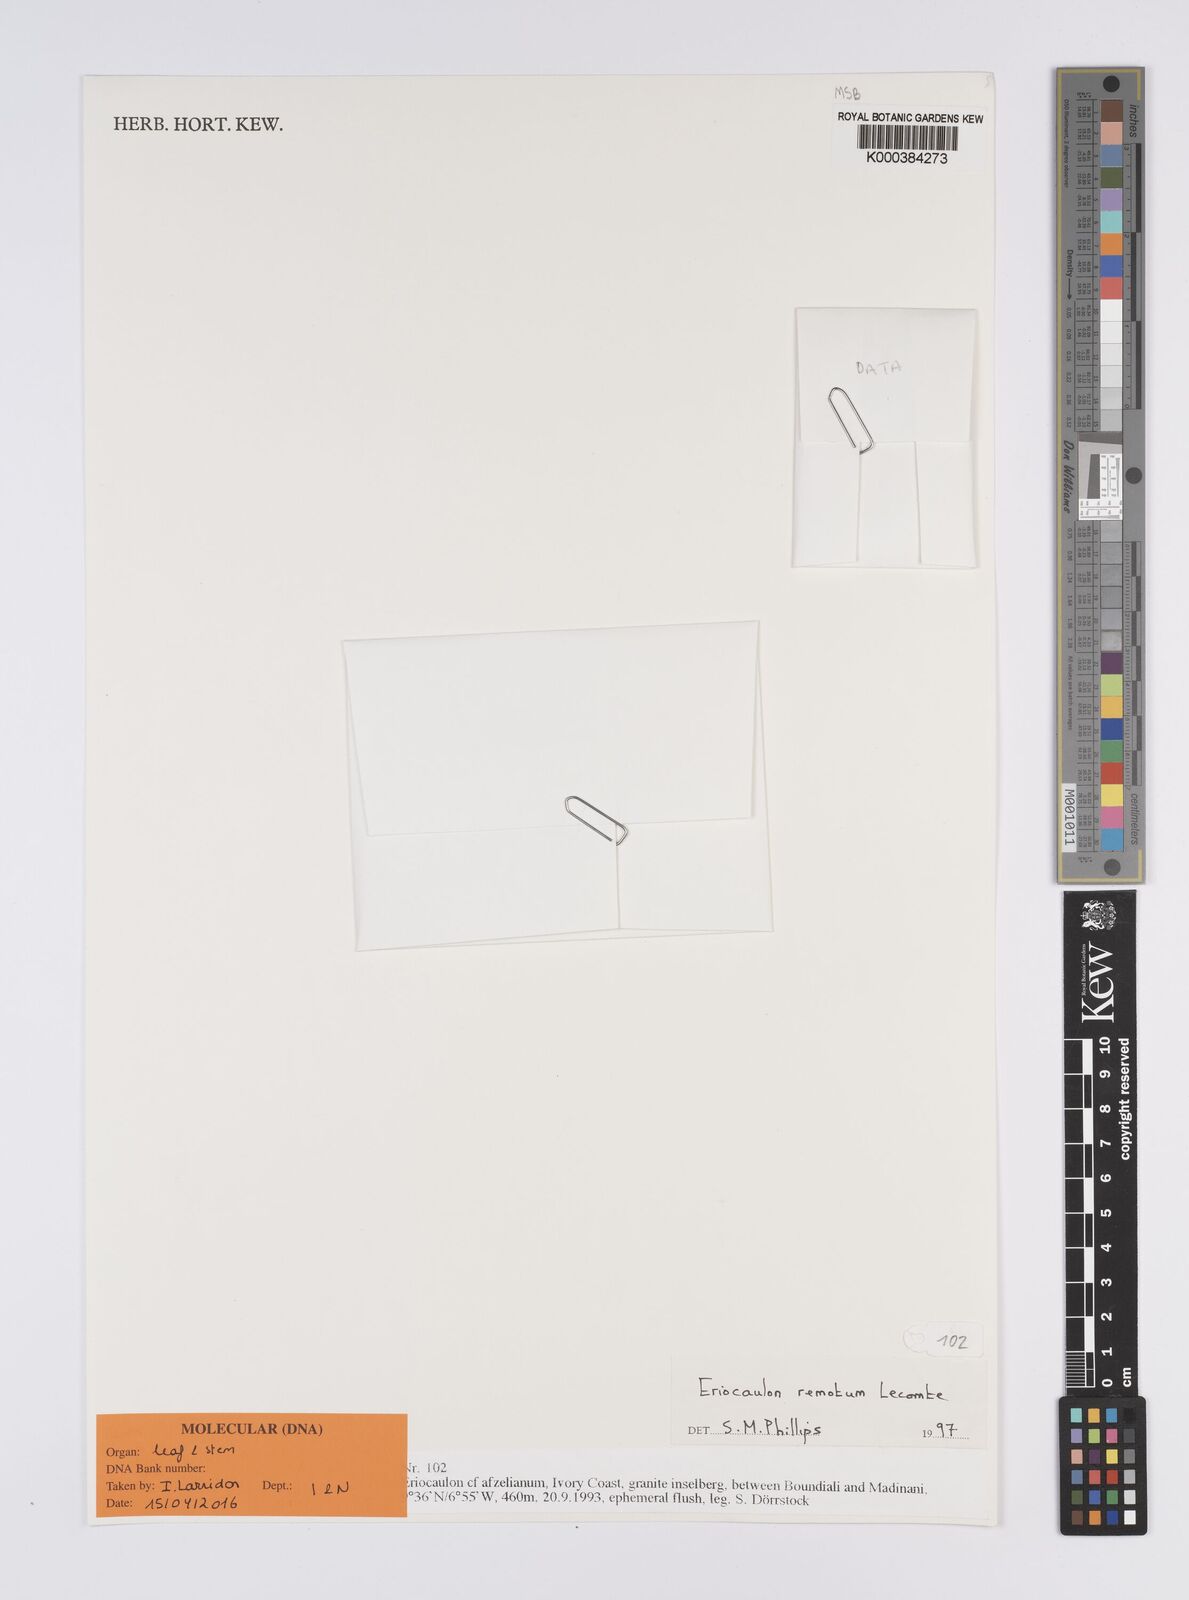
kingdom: Plantae
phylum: Tracheophyta
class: Liliopsida
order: Poales
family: Eriocaulaceae
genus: Eriocaulon
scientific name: Eriocaulon remotum
